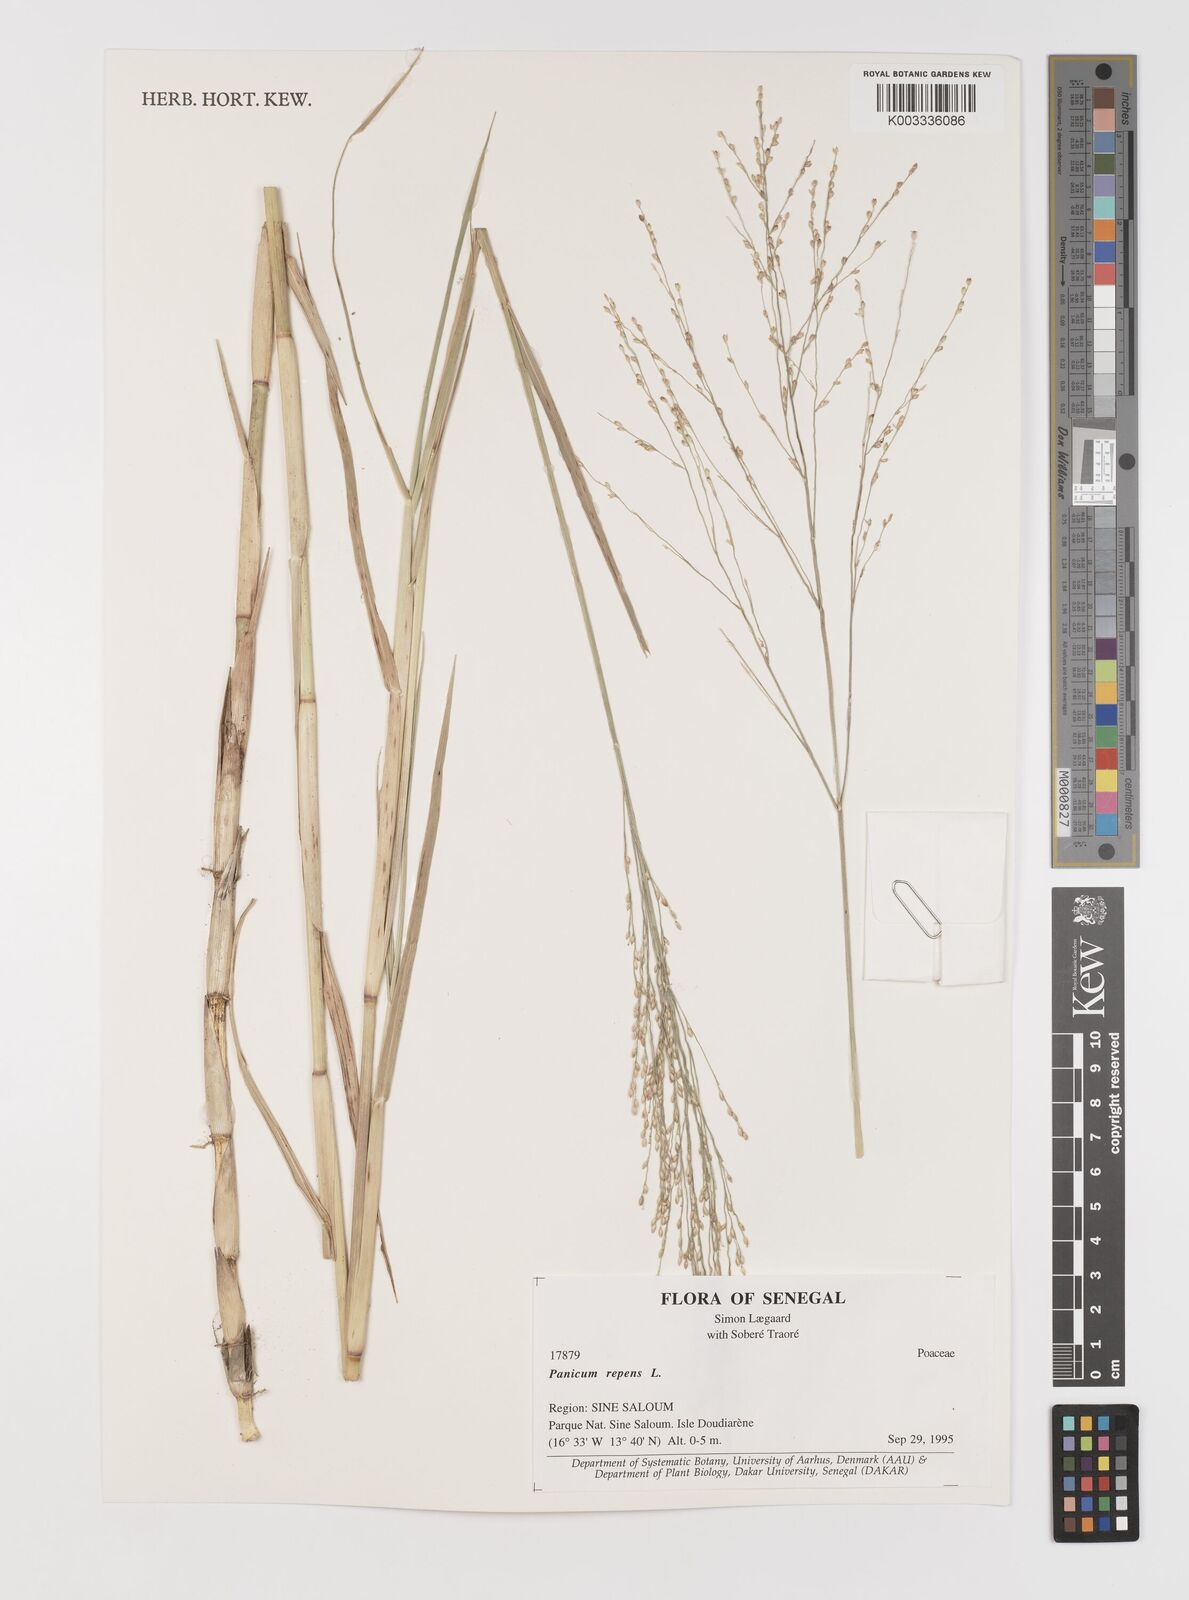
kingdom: Plantae
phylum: Tracheophyta
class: Liliopsida
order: Poales
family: Poaceae
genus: Panicum
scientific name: Panicum repens
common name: Torpedo grass
